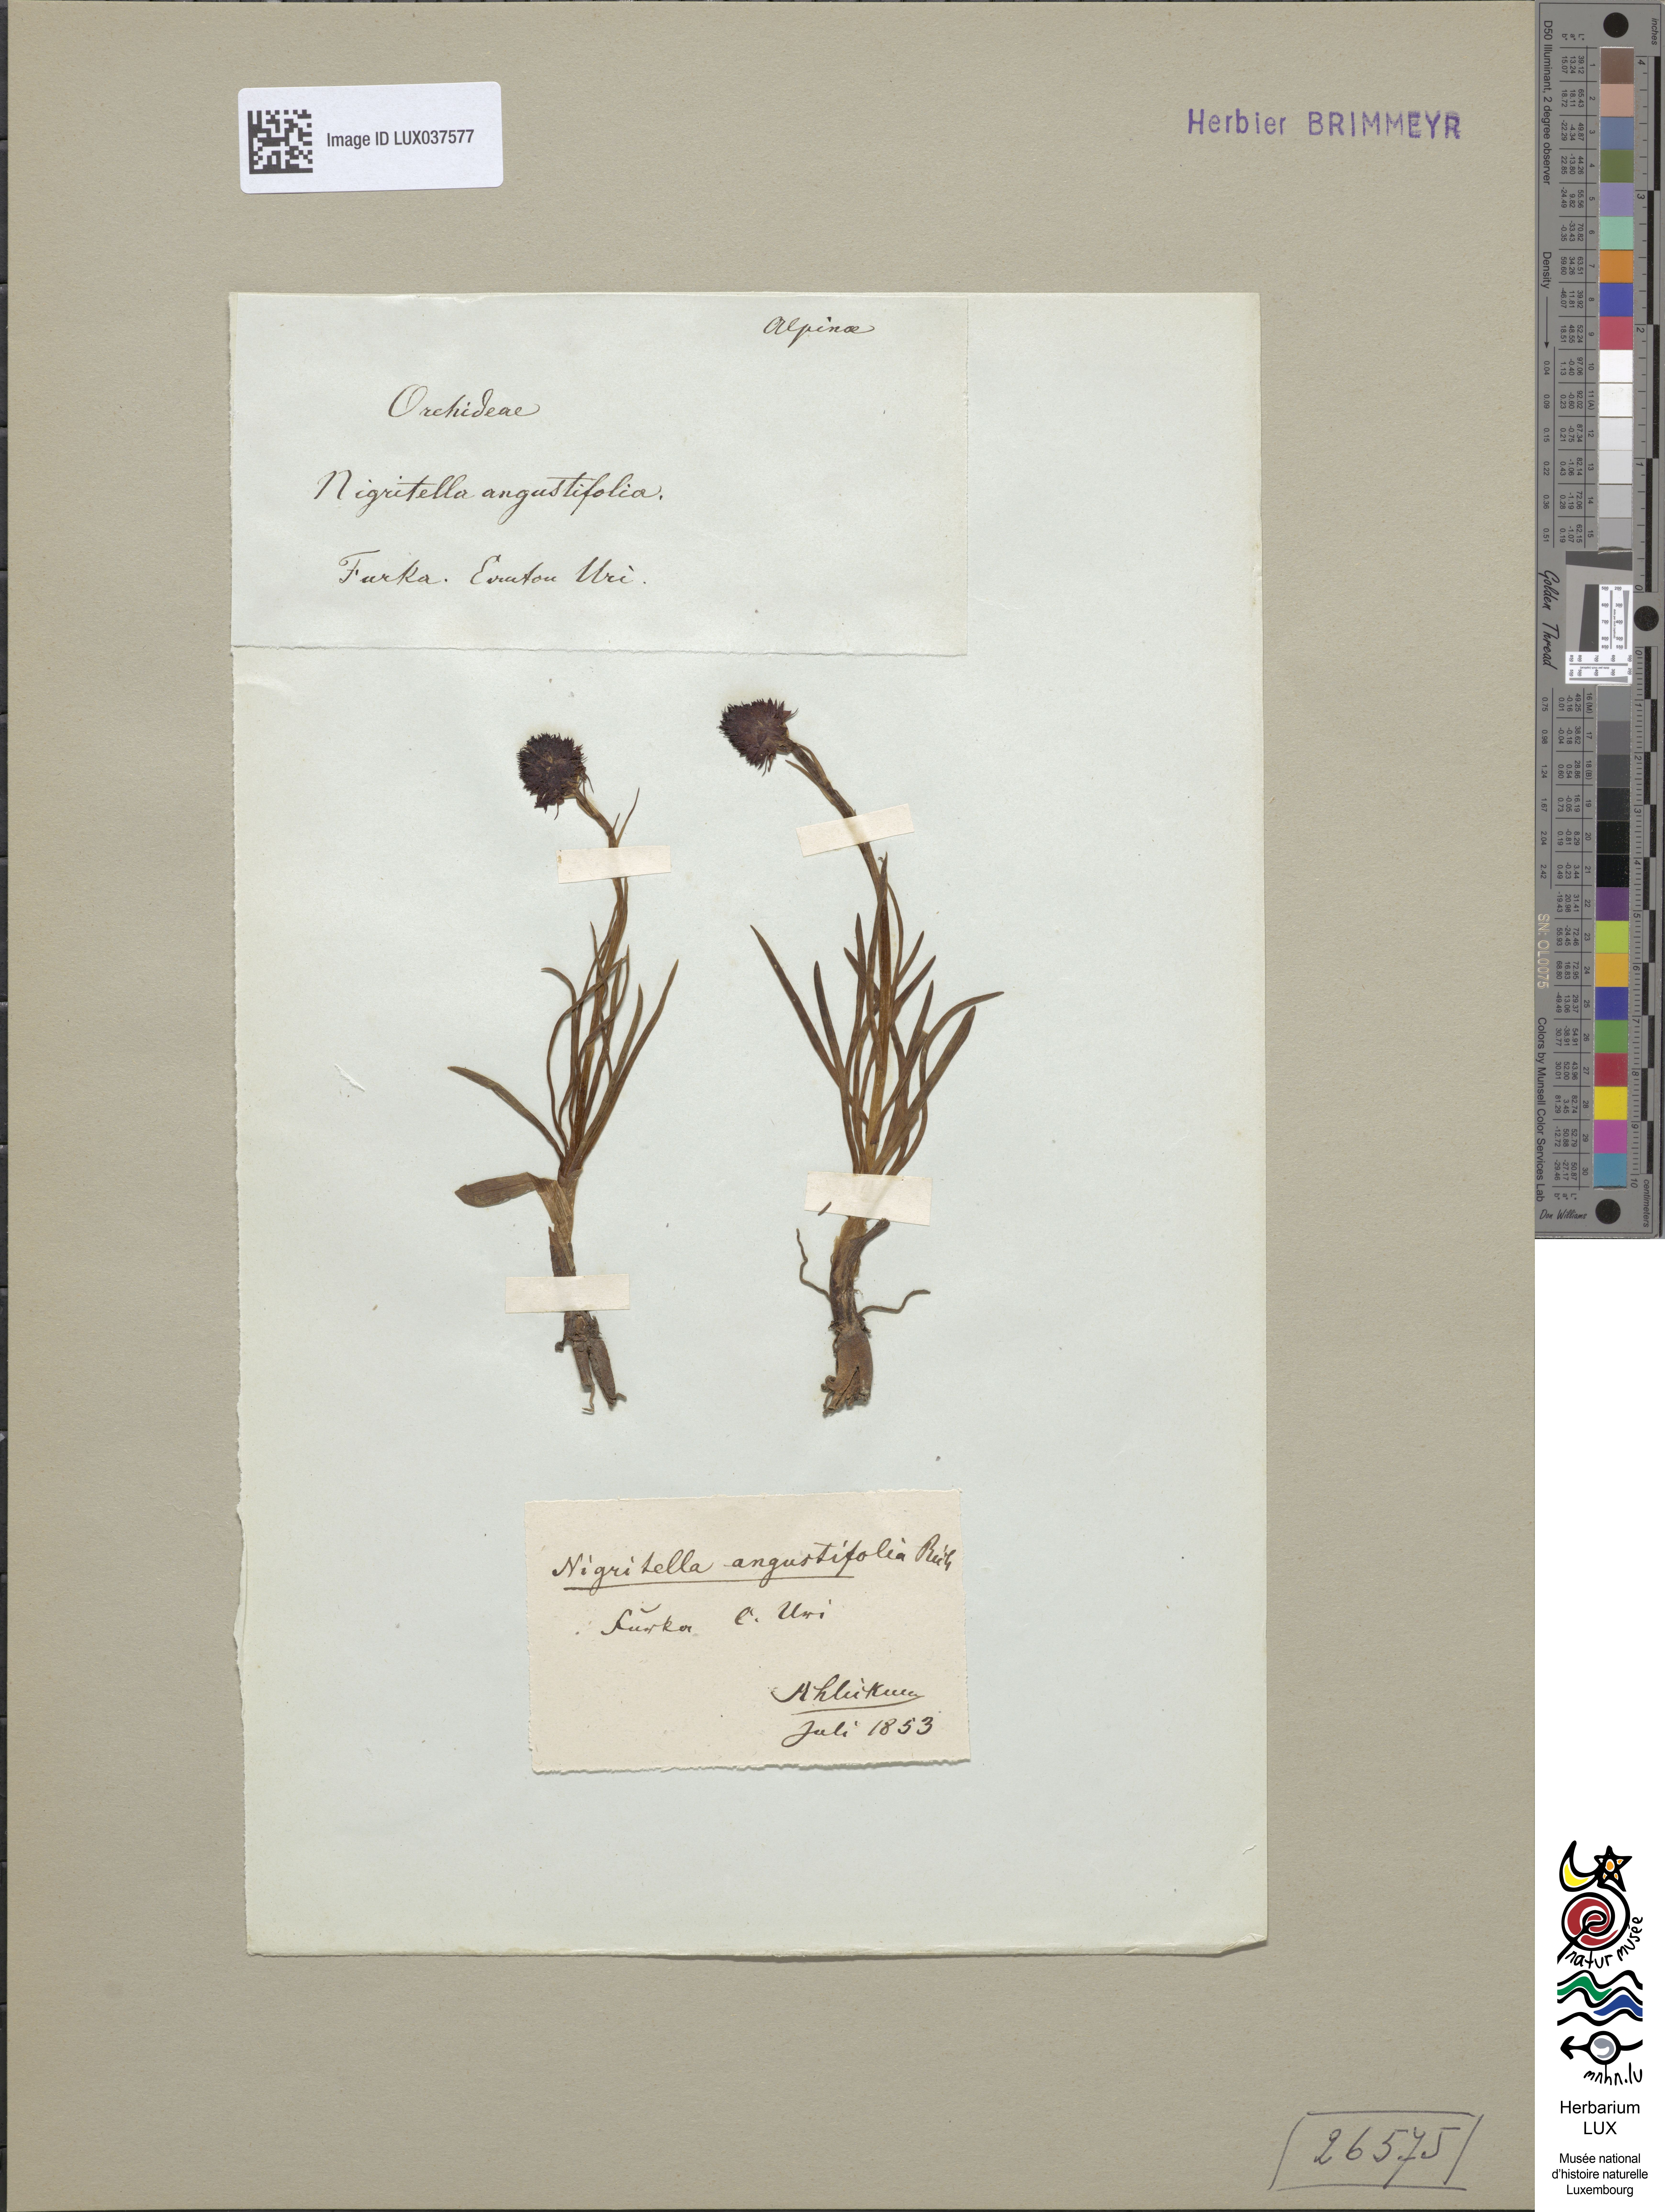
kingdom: Plantae
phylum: Tracheophyta
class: Liliopsida
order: Asparagales
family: Orchidaceae
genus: Gymnadenia
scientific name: Gymnadenia nigra
